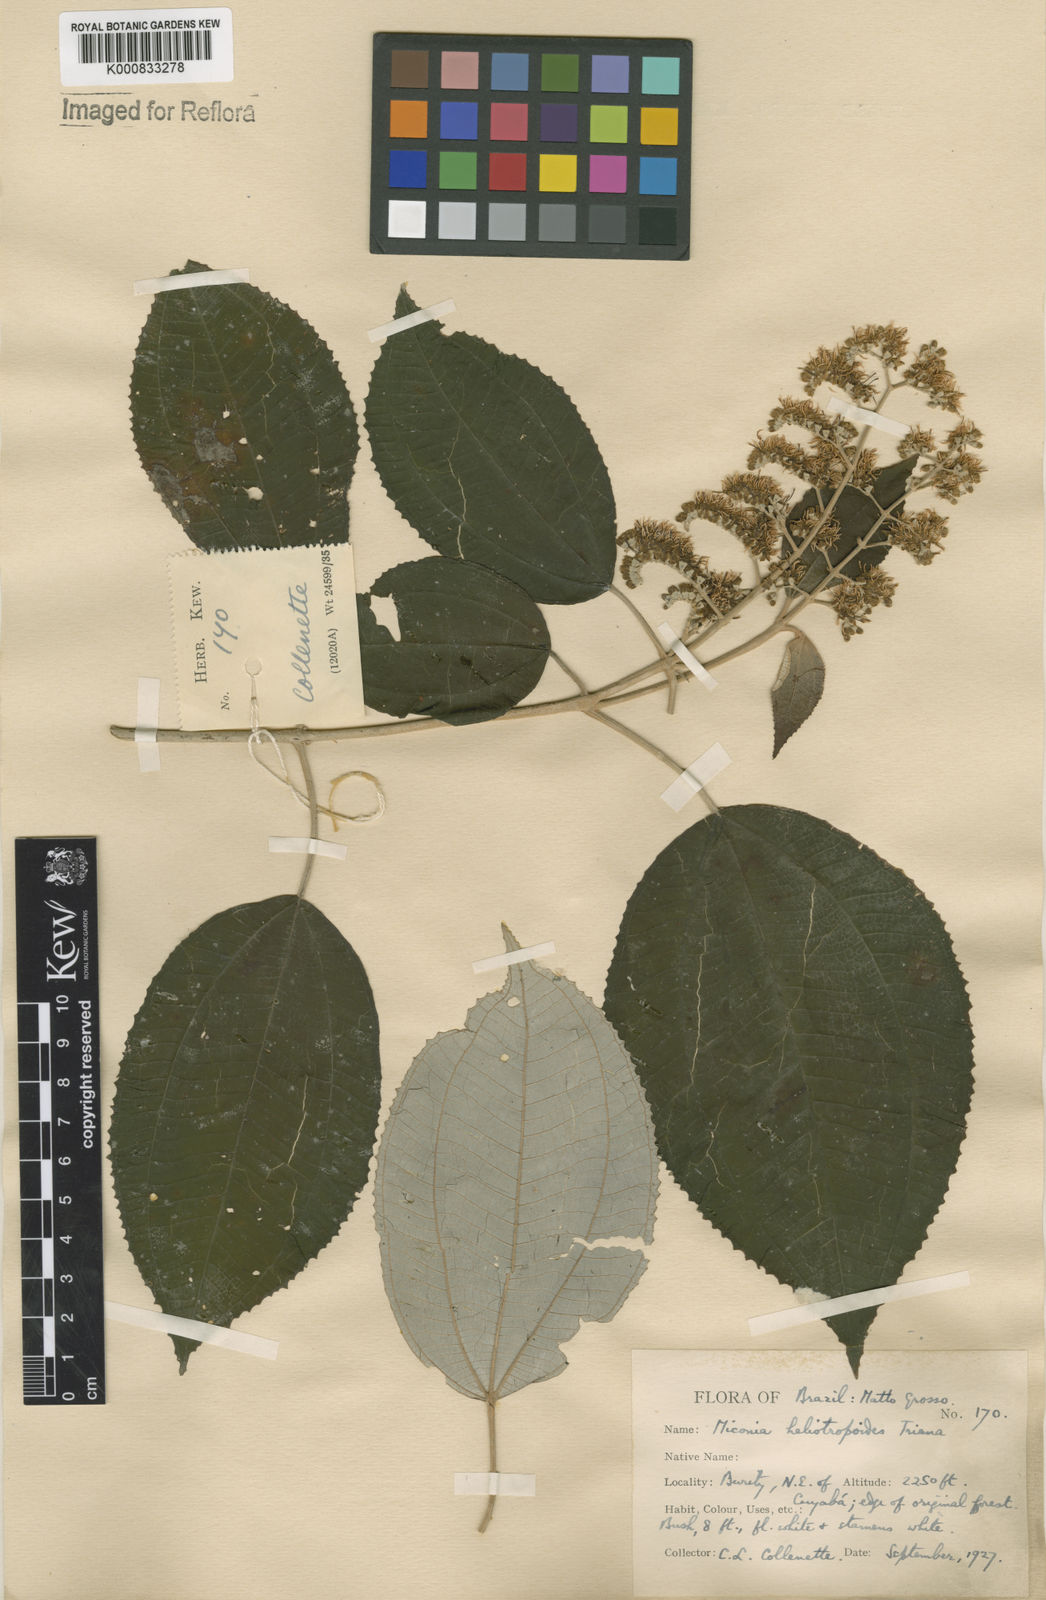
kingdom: Plantae
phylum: Tracheophyta
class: Magnoliopsida
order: Myrtales
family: Melastomataceae
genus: Miconia
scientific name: Miconia heliotropoides
